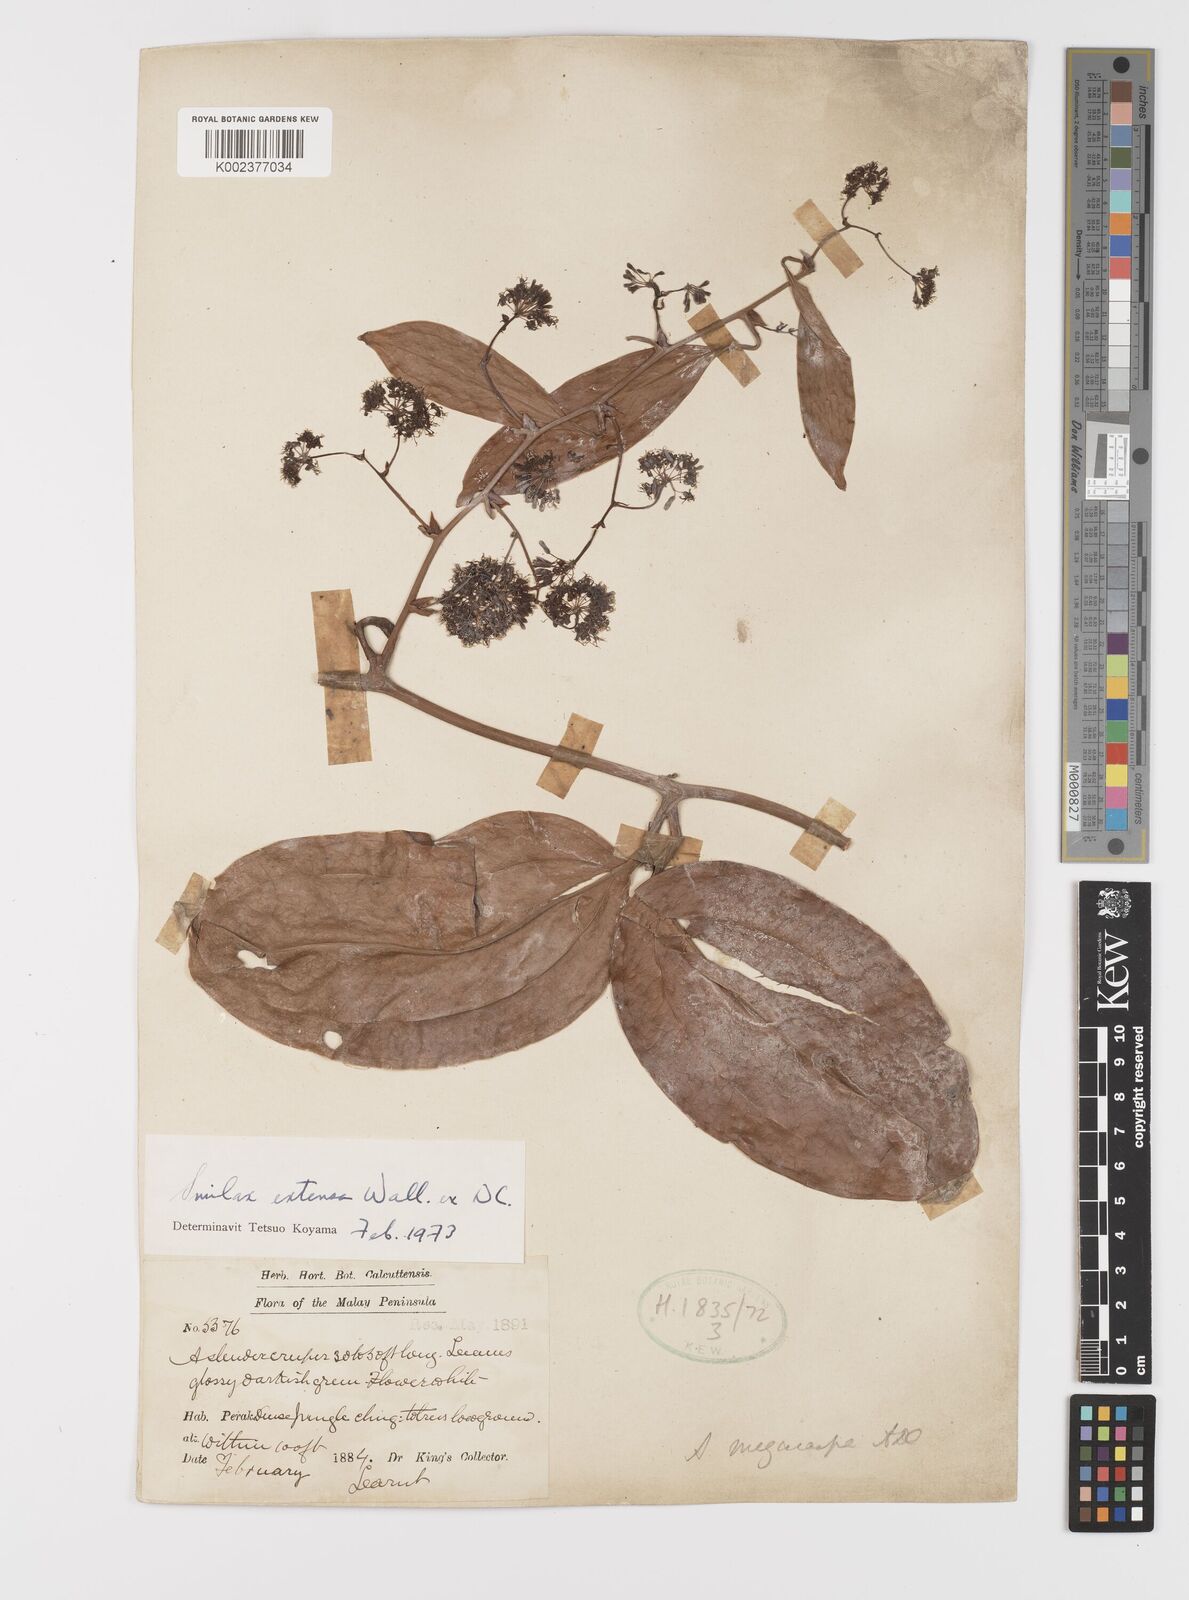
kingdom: Plantae
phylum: Tracheophyta
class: Liliopsida
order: Liliales
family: Smilacaceae
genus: Smilax
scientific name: Smilax extensa
